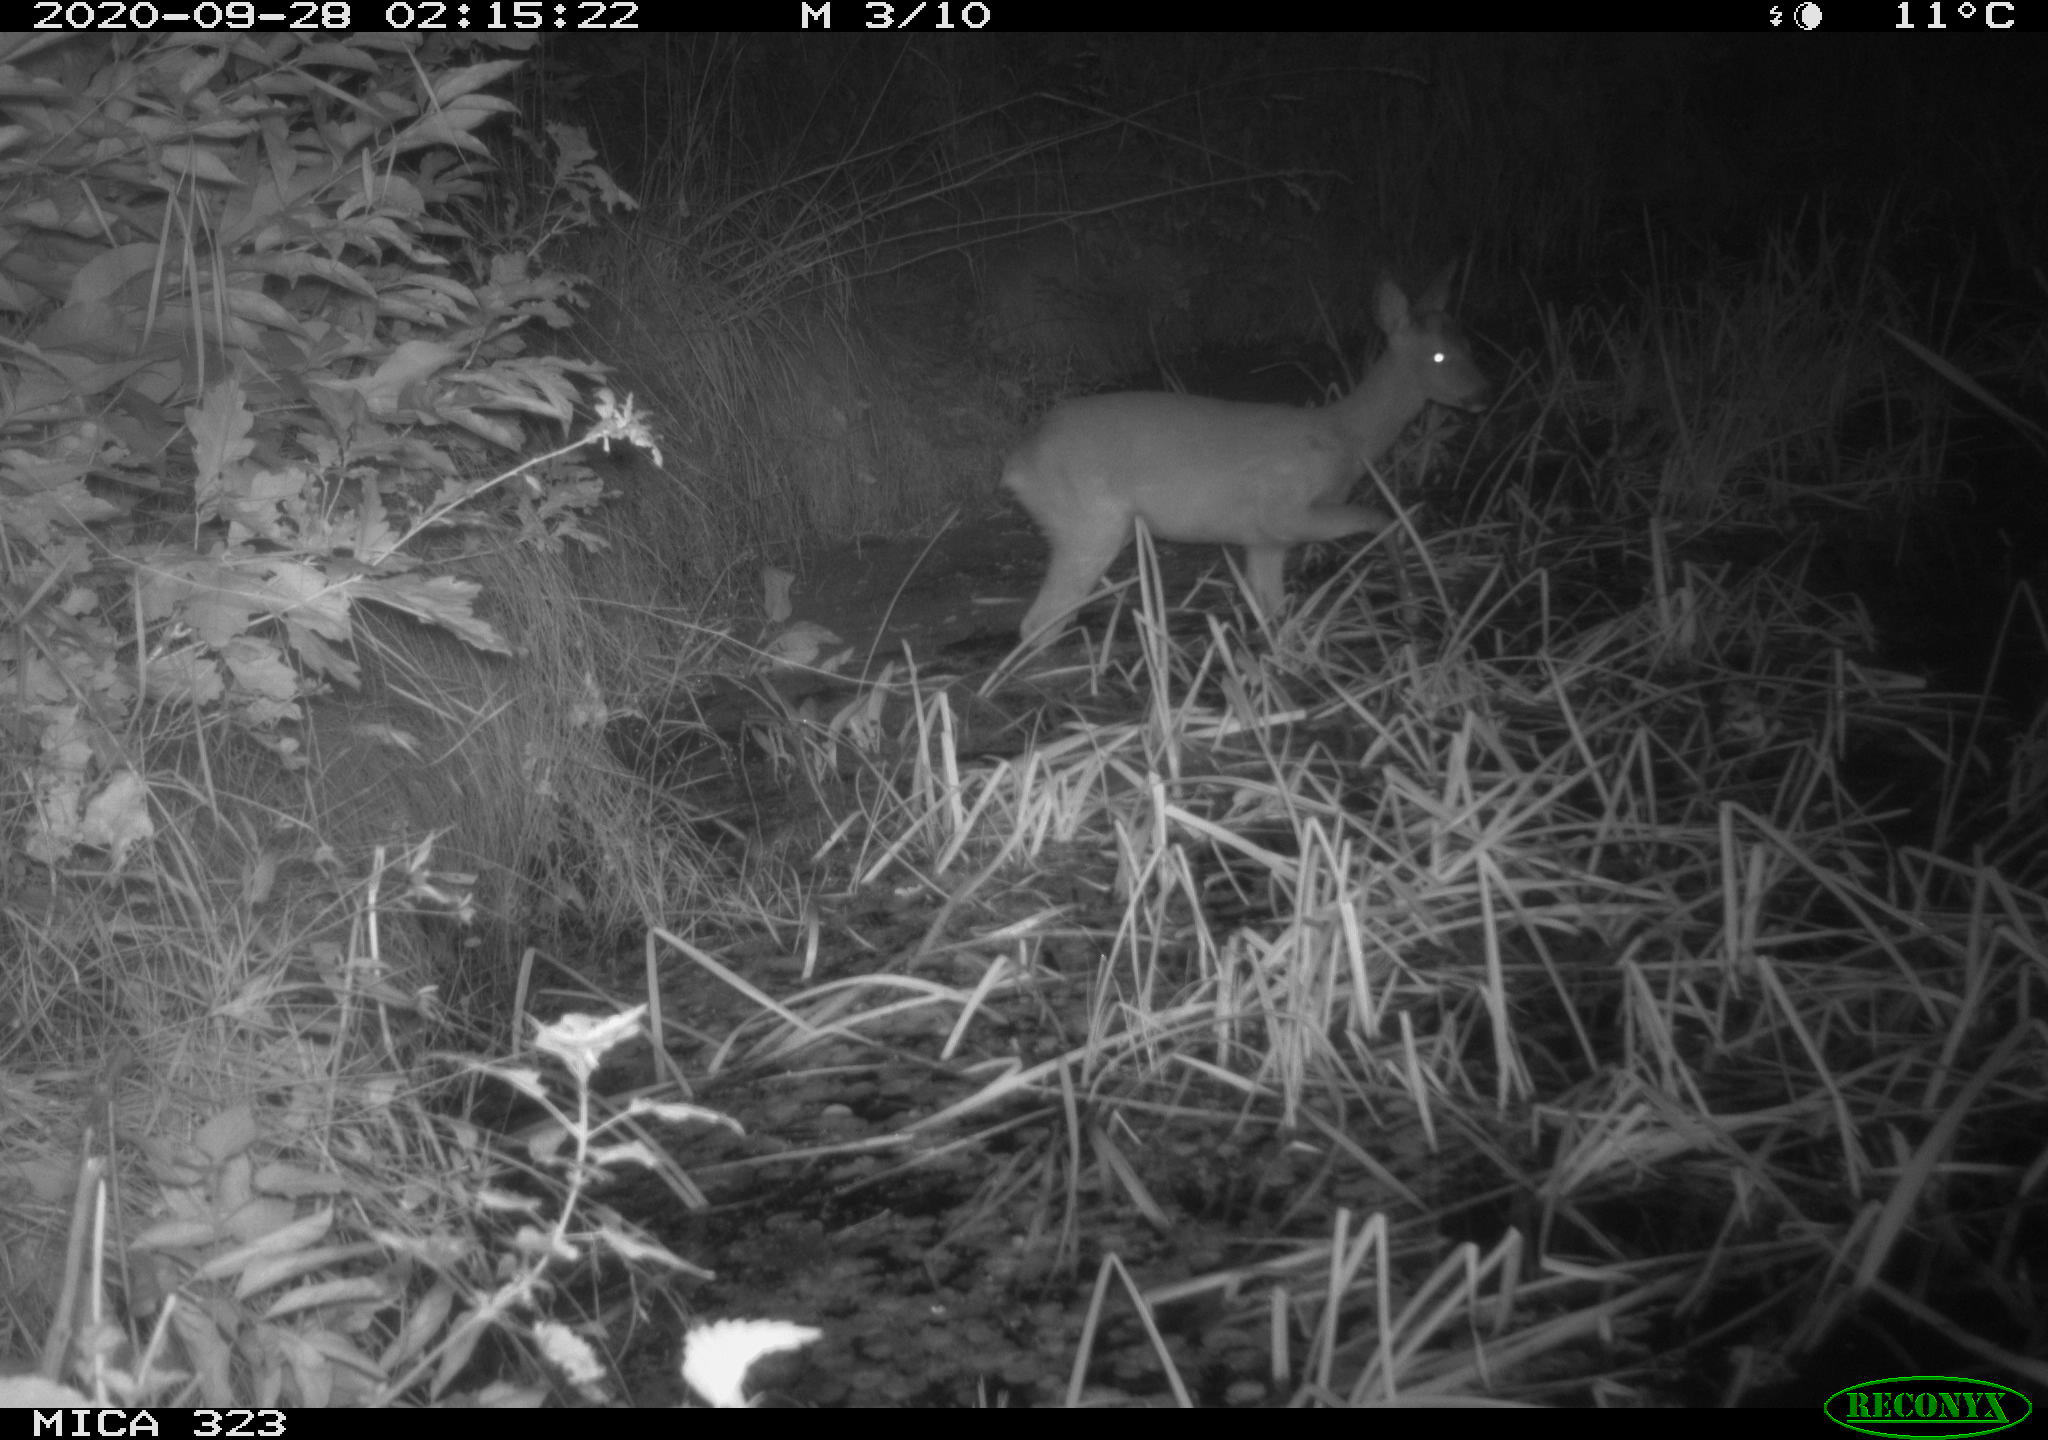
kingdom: Animalia
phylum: Chordata
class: Mammalia
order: Artiodactyla
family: Cervidae
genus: Capreolus
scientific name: Capreolus capreolus
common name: Western roe deer
